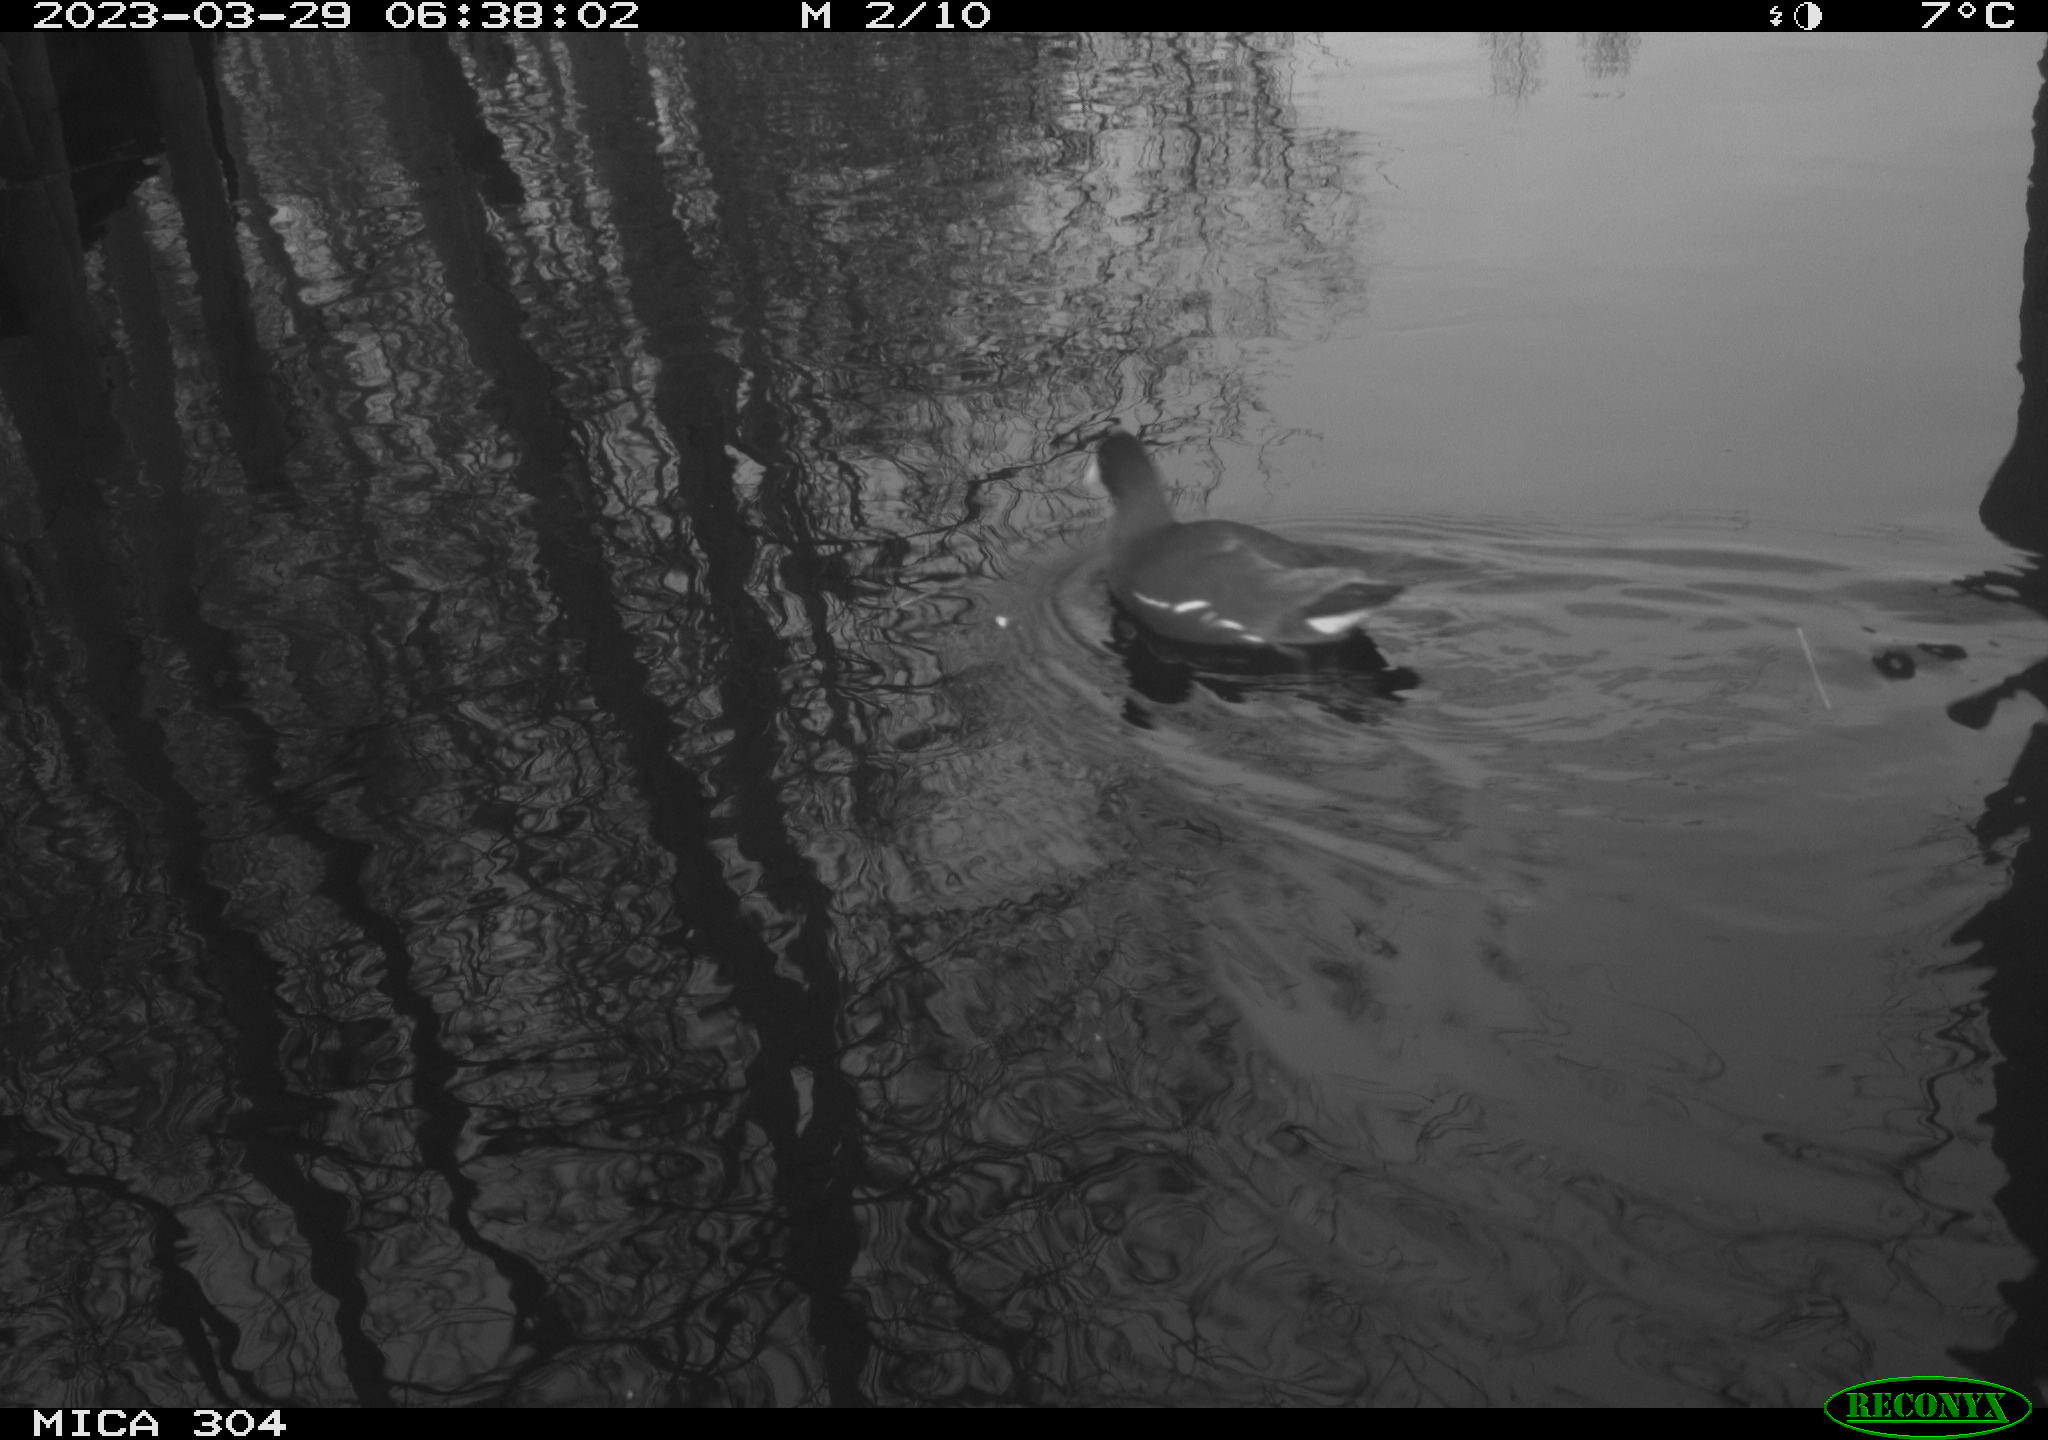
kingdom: Animalia
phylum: Chordata
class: Aves
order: Gruiformes
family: Rallidae
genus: Gallinula
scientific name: Gallinula chloropus
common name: Common moorhen
